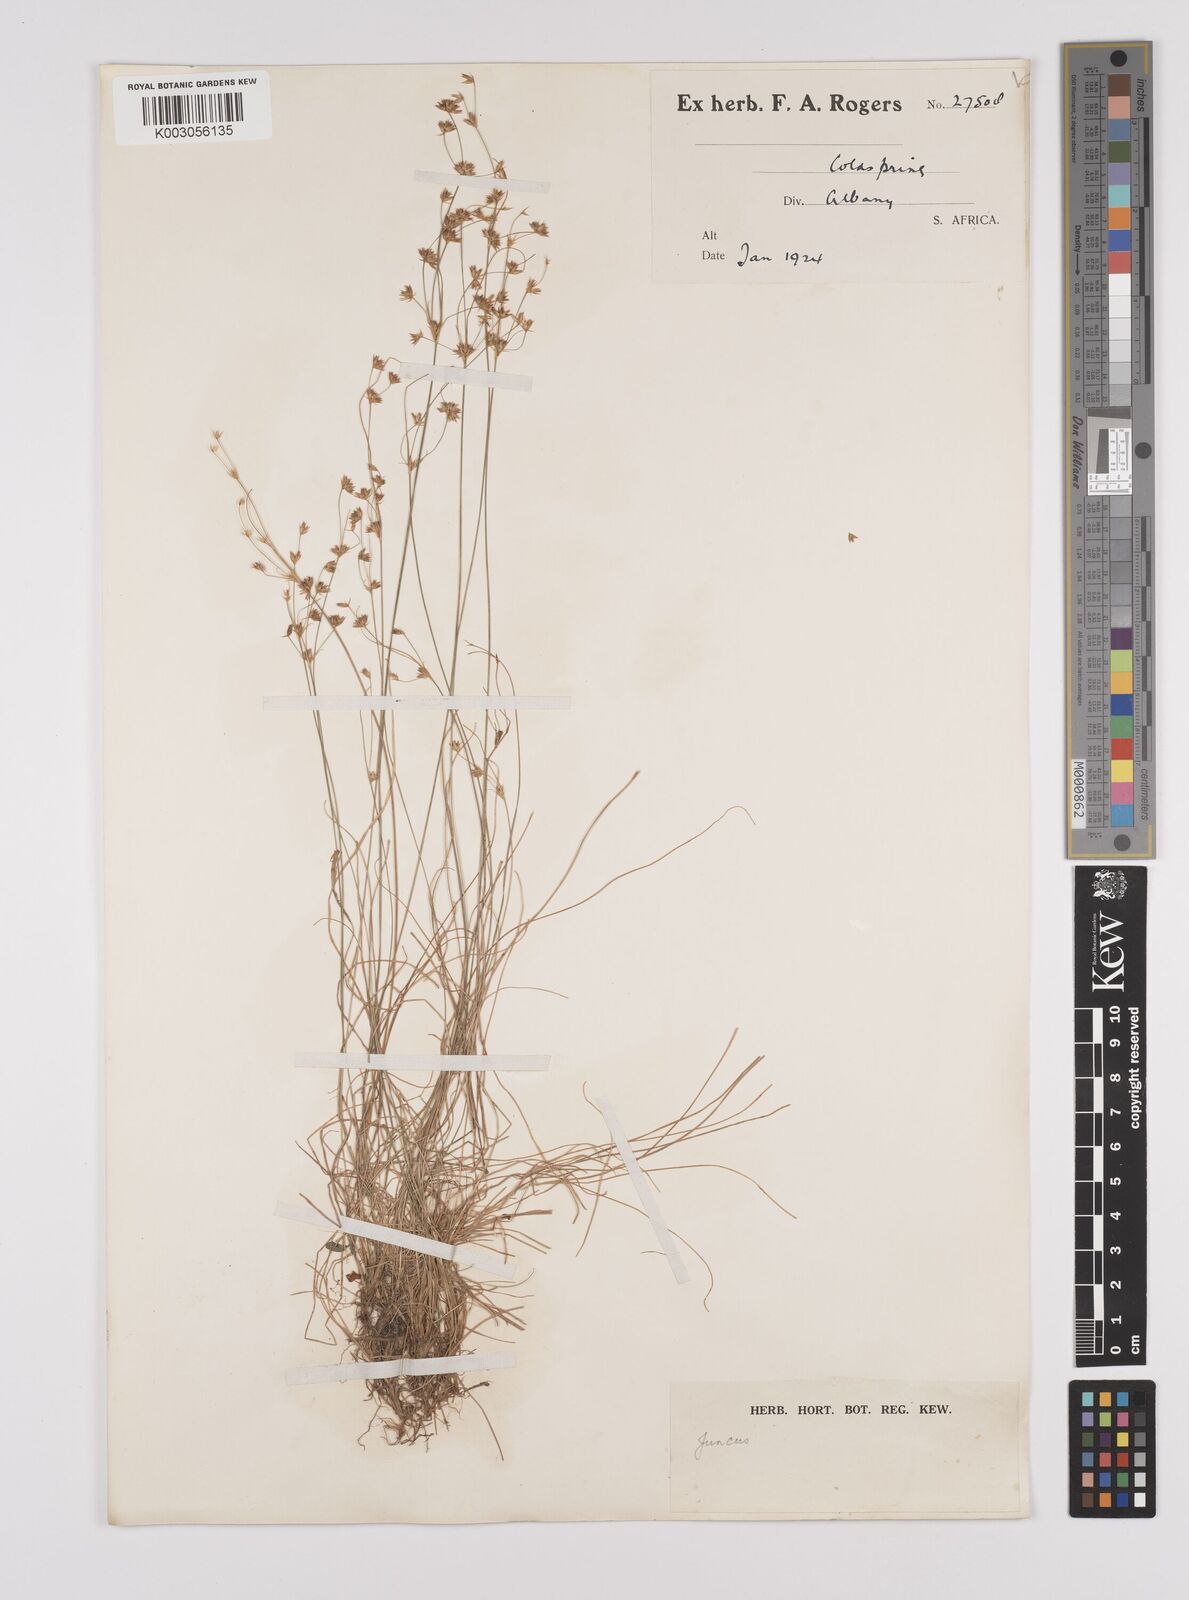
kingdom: Plantae
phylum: Tracheophyta
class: Liliopsida
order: Poales
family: Juncaceae
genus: Juncus
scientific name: Juncus
